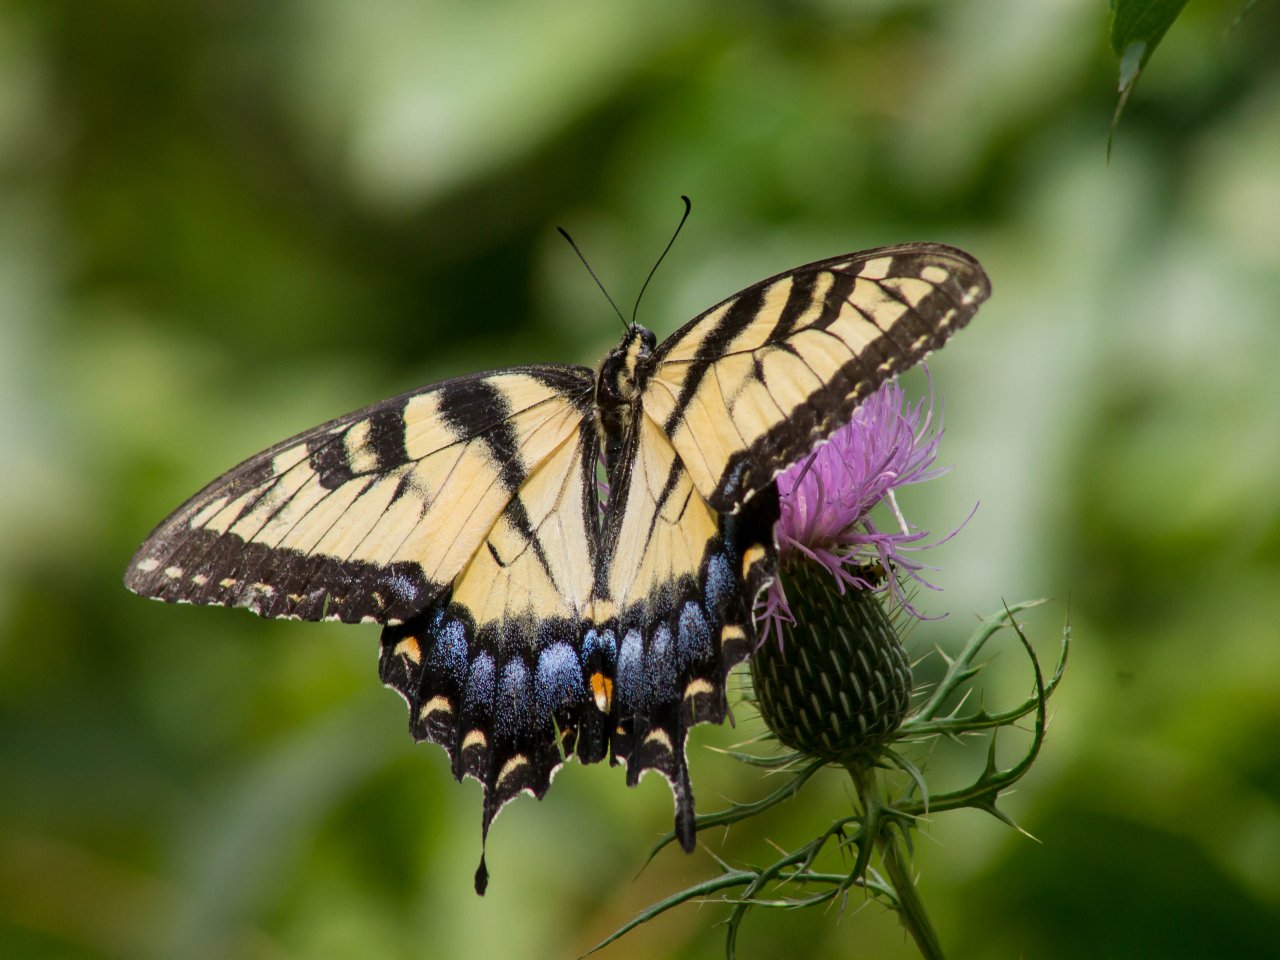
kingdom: Animalia
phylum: Arthropoda
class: Insecta
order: Lepidoptera
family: Papilionidae
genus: Pterourus
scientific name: Pterourus glaucus
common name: Eastern Tiger Swallowtail
